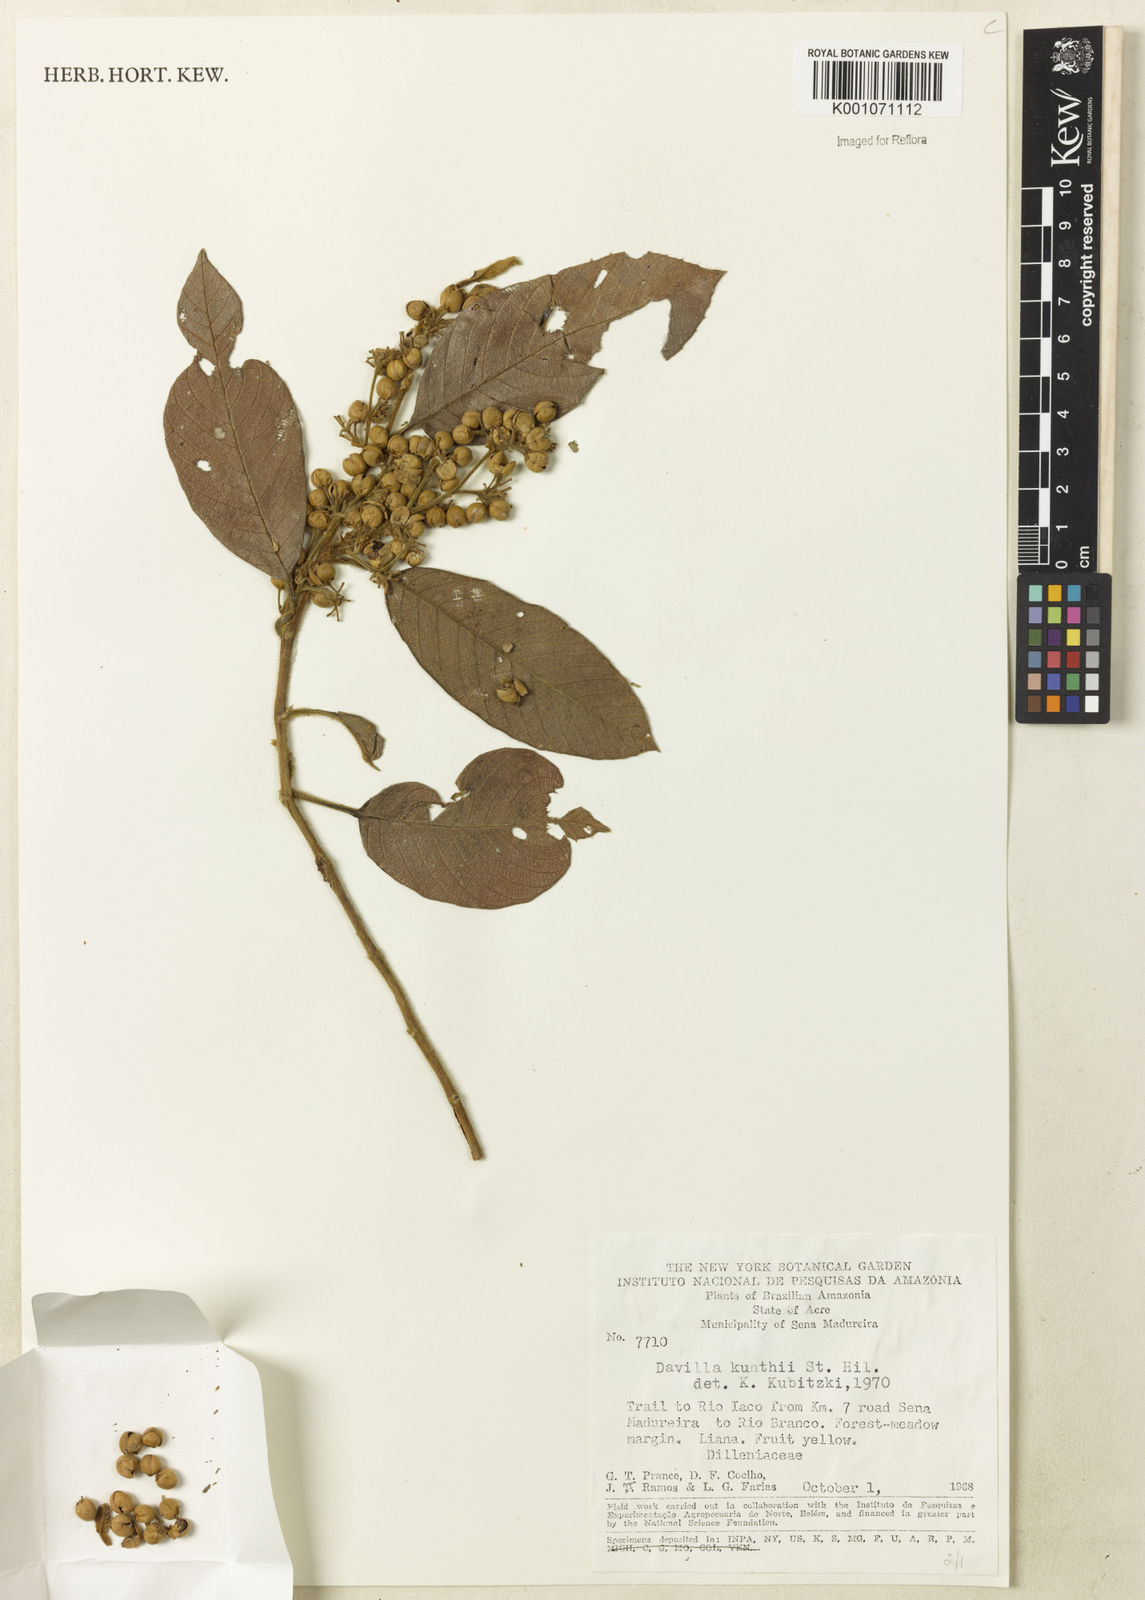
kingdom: Plantae
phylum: Tracheophyta
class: Magnoliopsida
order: Dilleniales
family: Dilleniaceae
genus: Davilla
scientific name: Davilla
